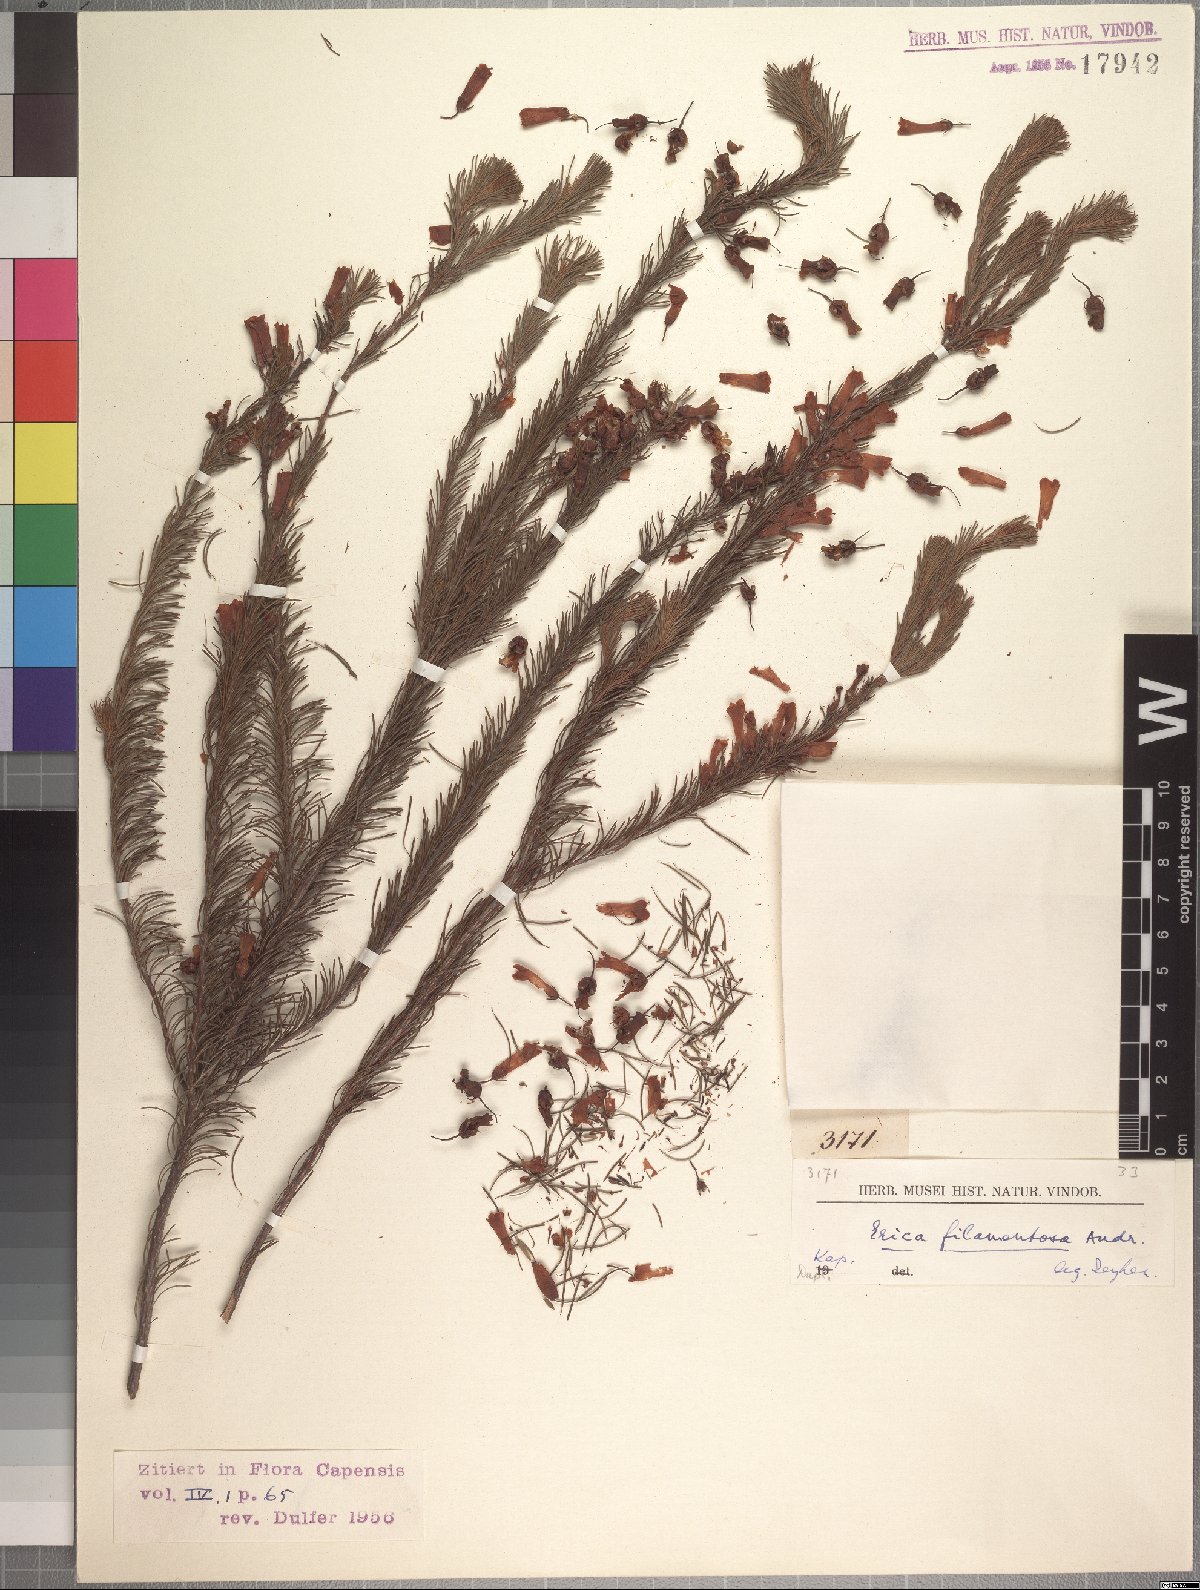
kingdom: Plantae
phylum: Tracheophyta
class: Magnoliopsida
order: Ericales
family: Ericaceae
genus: Erica
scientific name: Erica hermani
